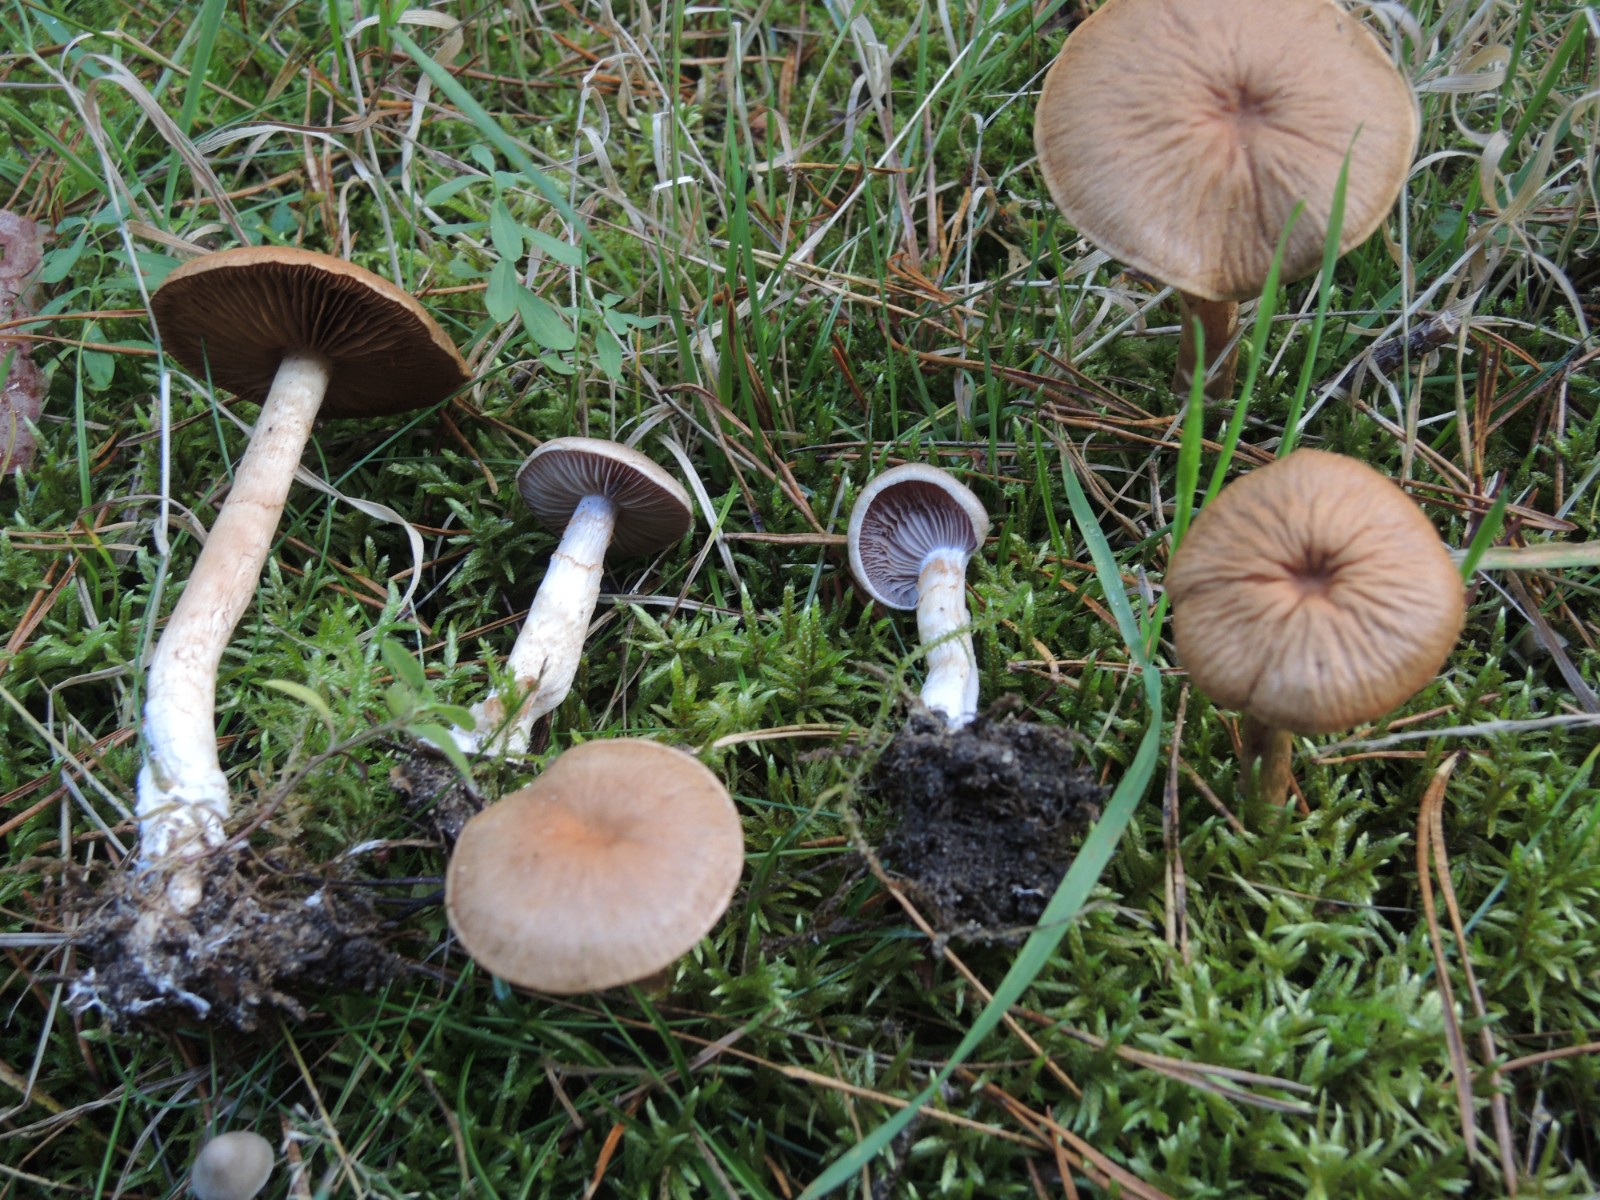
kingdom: Fungi
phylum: Basidiomycota
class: Agaricomycetes
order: Agaricales
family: Cortinariaceae
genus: Cortinarius
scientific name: Cortinarius
